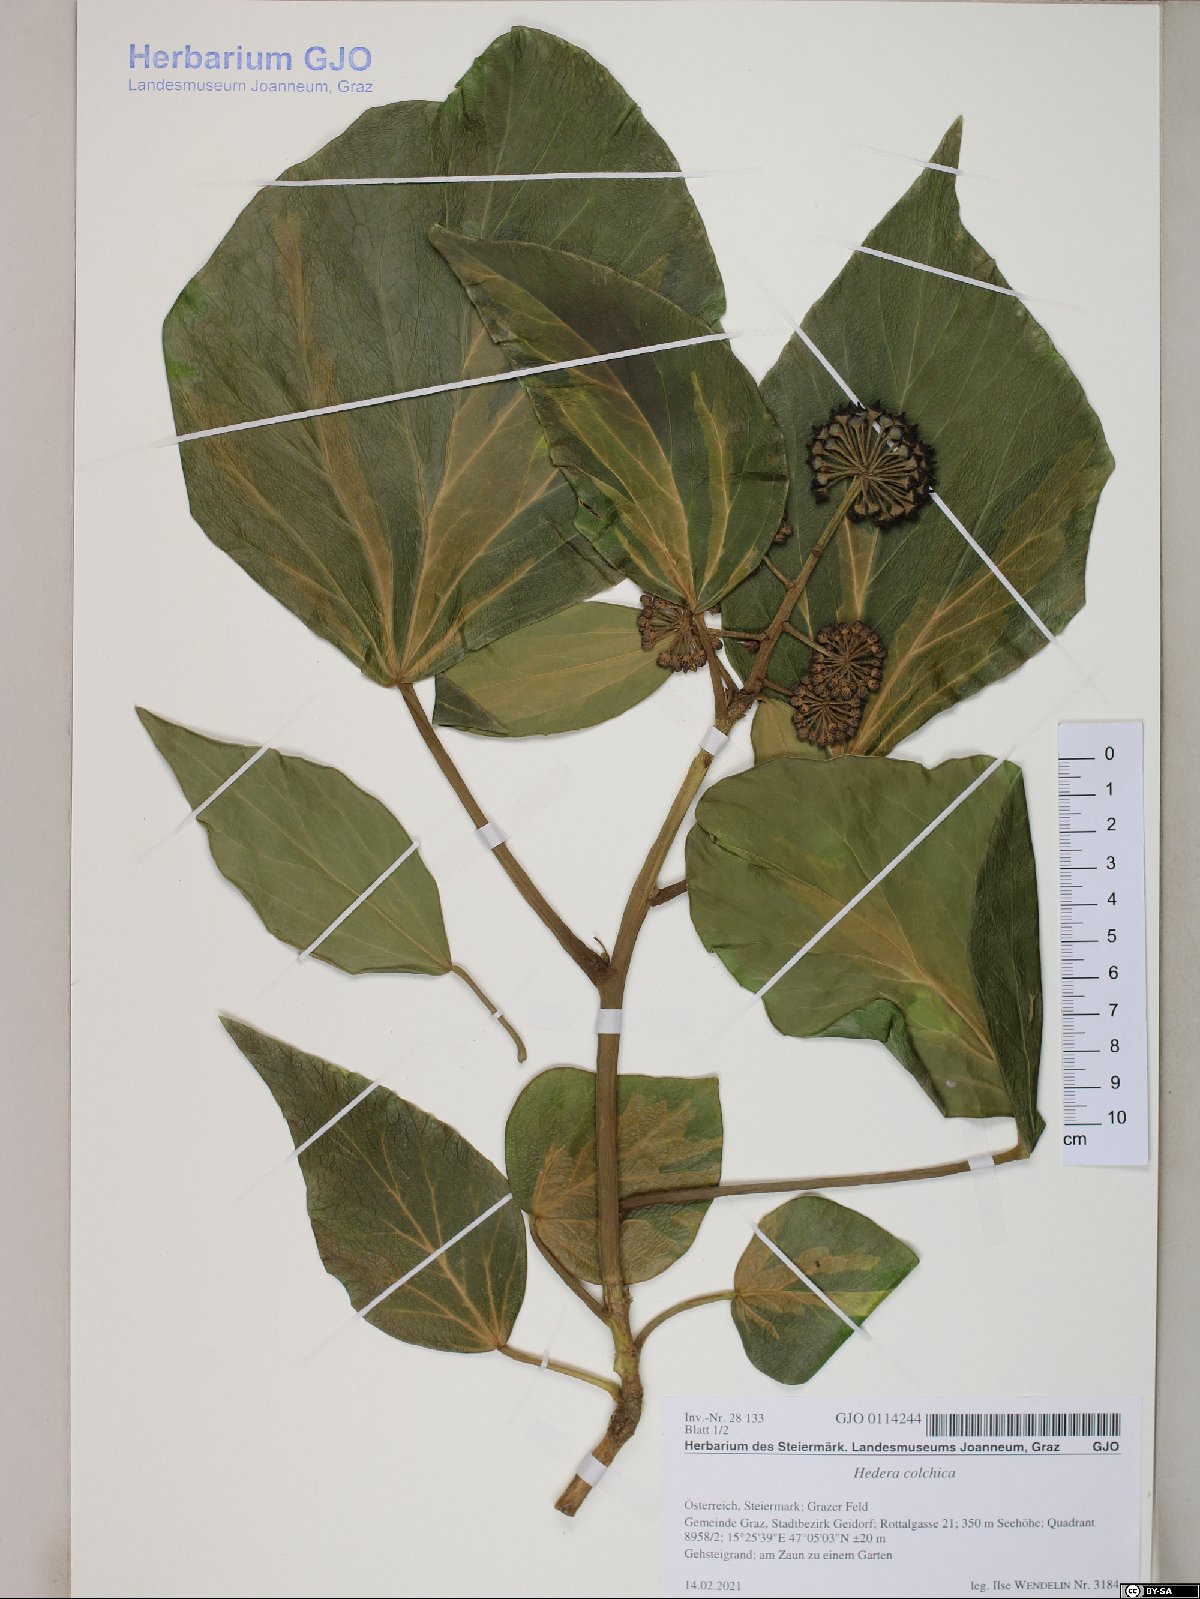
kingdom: Plantae
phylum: Tracheophyta
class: Magnoliopsida
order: Apiales
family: Araliaceae
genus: Hedera
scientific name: Hedera colchica
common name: Persian ivy
